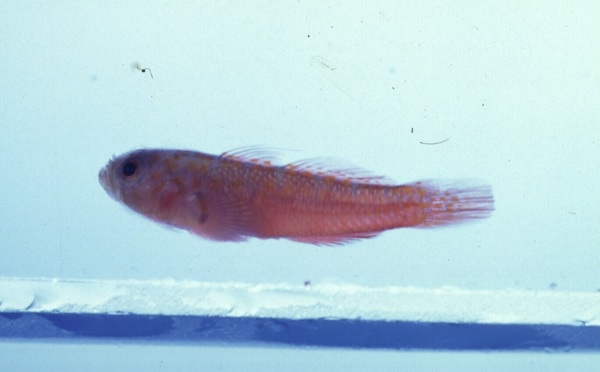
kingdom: Animalia
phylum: Chordata
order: Perciformes
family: Gobiidae
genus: Trimma
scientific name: Trimma flammeum
